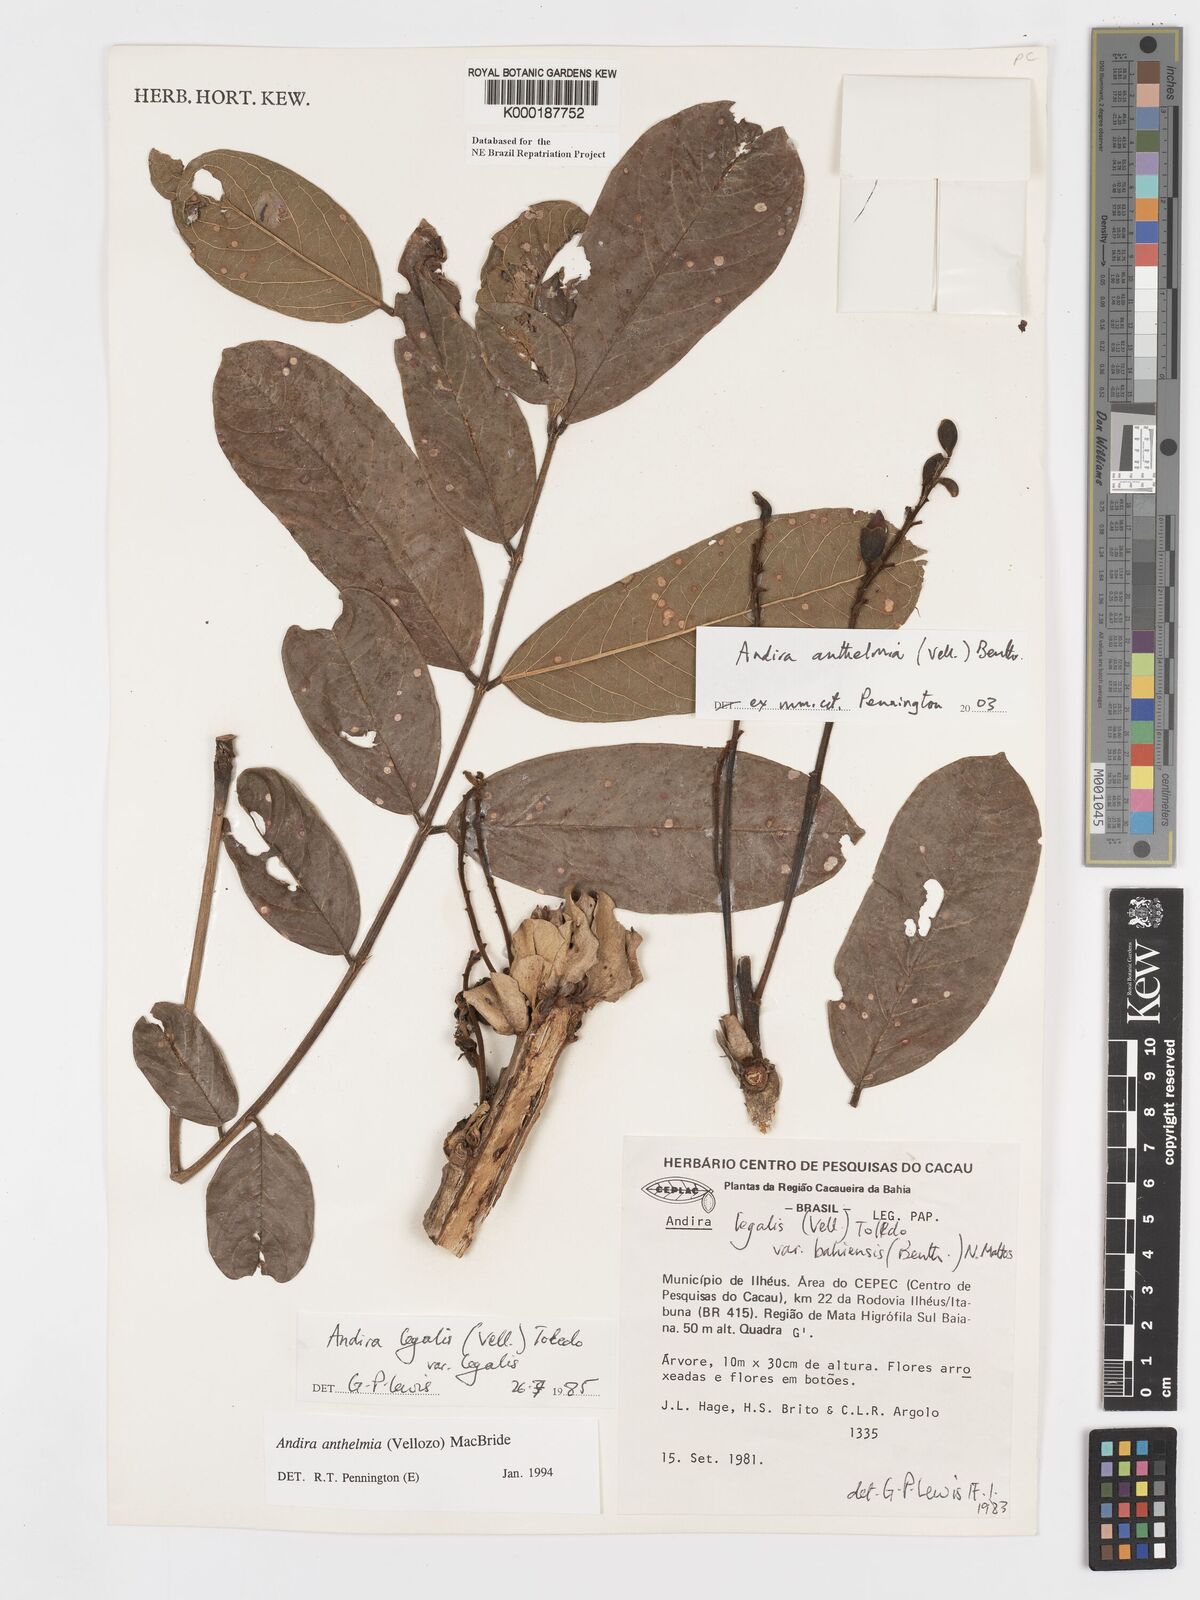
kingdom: Plantae
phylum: Tracheophyta
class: Magnoliopsida
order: Fabales
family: Fabaceae
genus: Andira
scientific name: Andira
